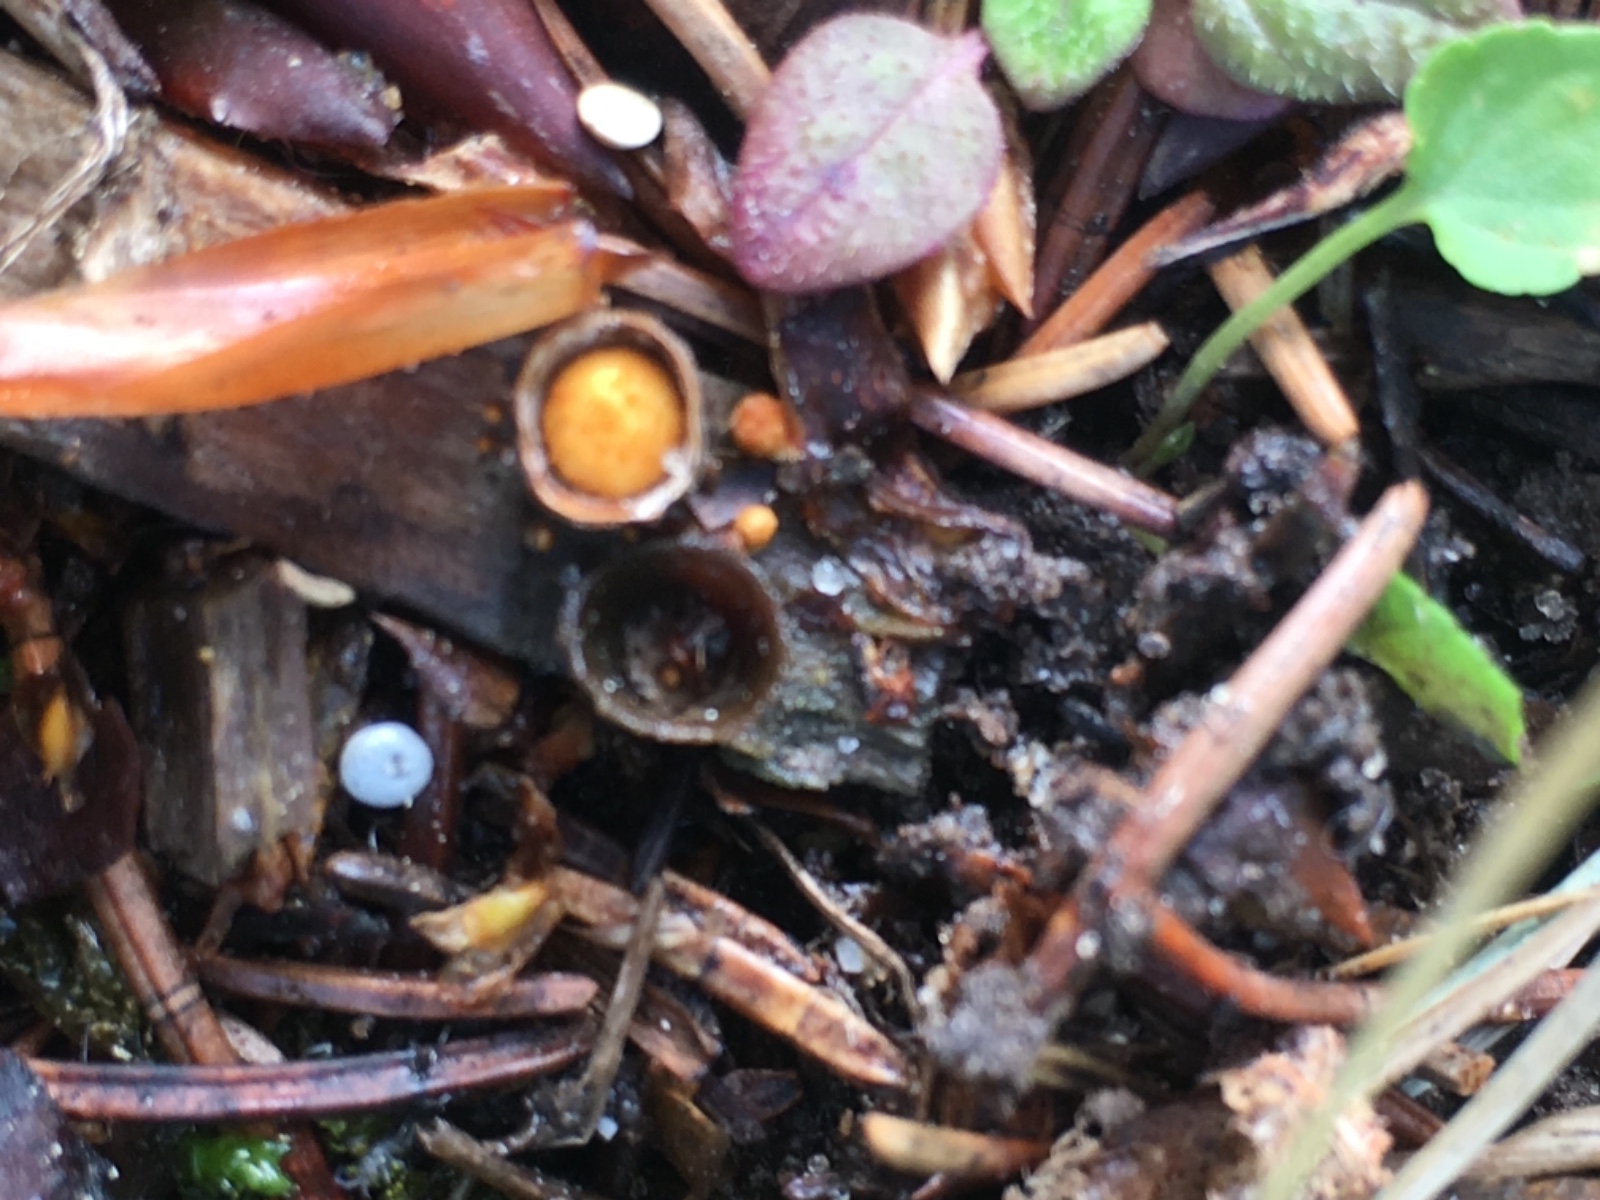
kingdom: Fungi
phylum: Basidiomycota
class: Agaricomycetes
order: Agaricales
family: Nidulariaceae
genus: Crucibulum
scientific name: Crucibulum crucibuliforme
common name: krukkesvamp
